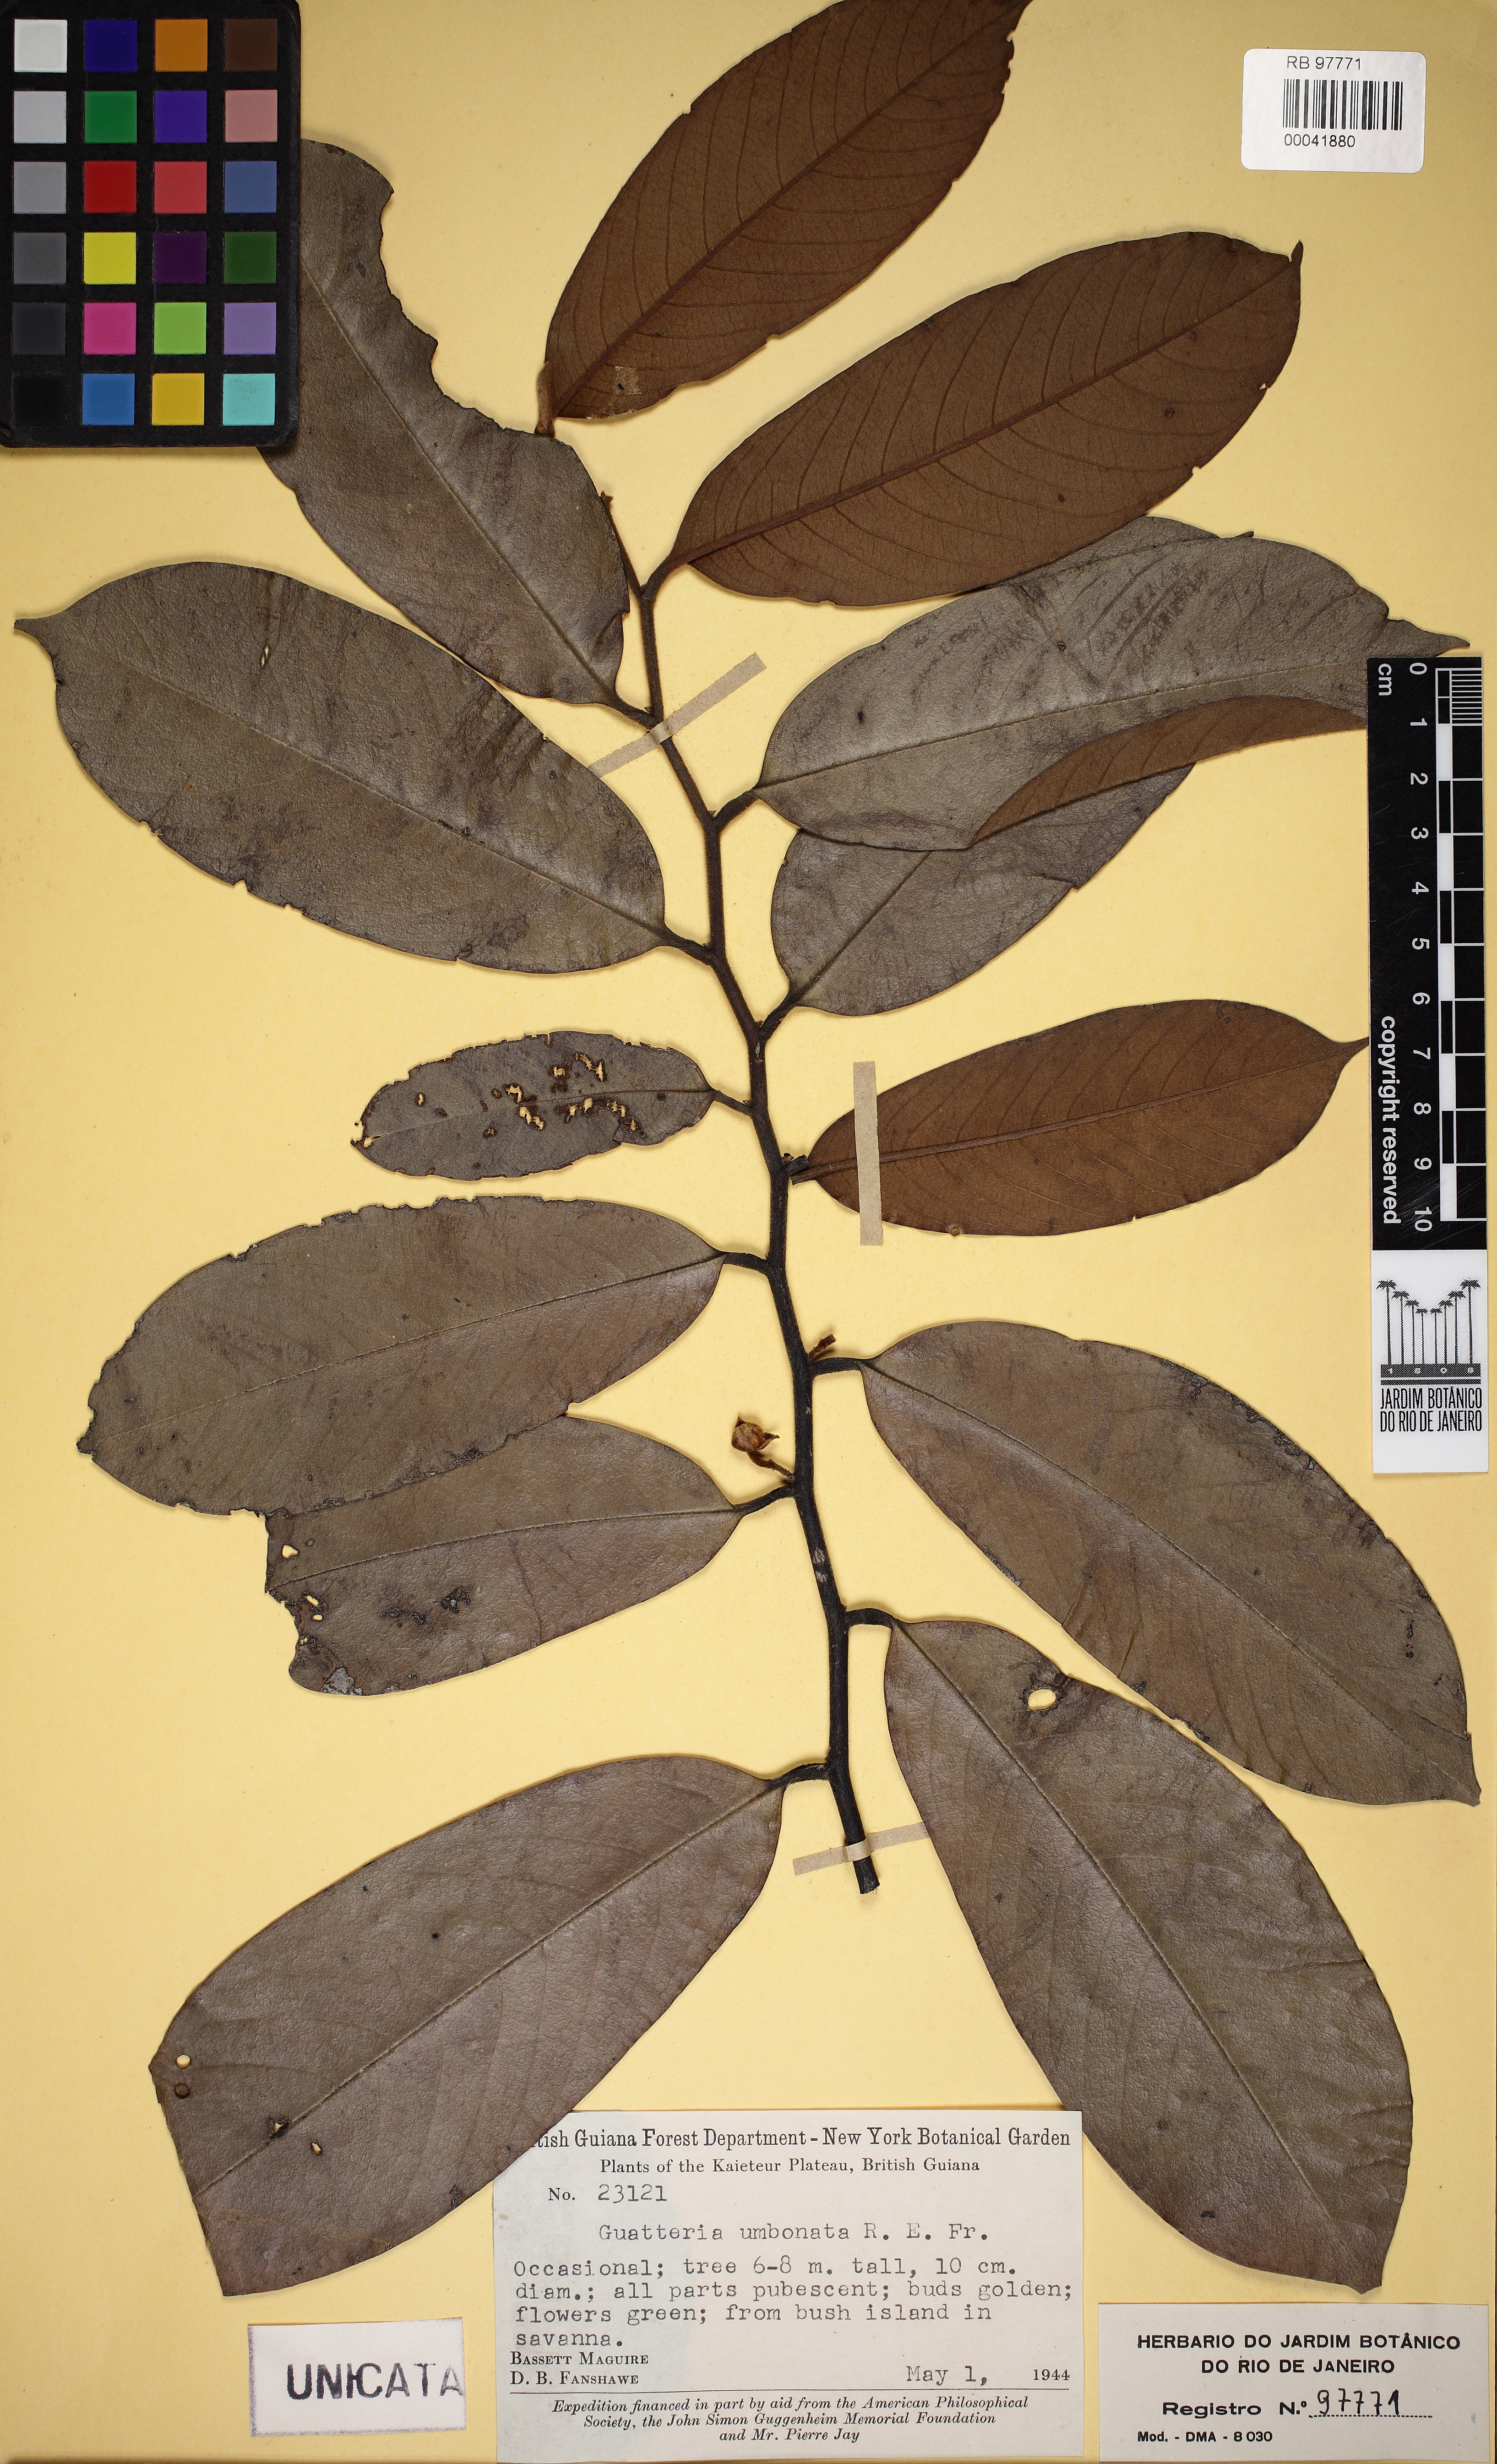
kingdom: Plantae
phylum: Tracheophyta
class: Magnoliopsida
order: Magnoliales
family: Annonaceae
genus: Guatteria
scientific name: Guatteria umbonata
